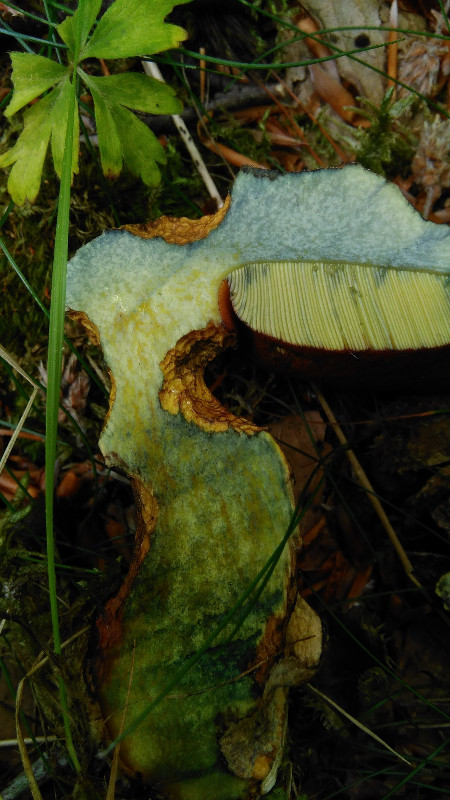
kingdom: Fungi
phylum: Basidiomycota
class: Agaricomycetes
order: Boletales
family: Boletaceae
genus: Neoboletus
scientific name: Neoboletus erythropus
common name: punktstokket indigorørhat
